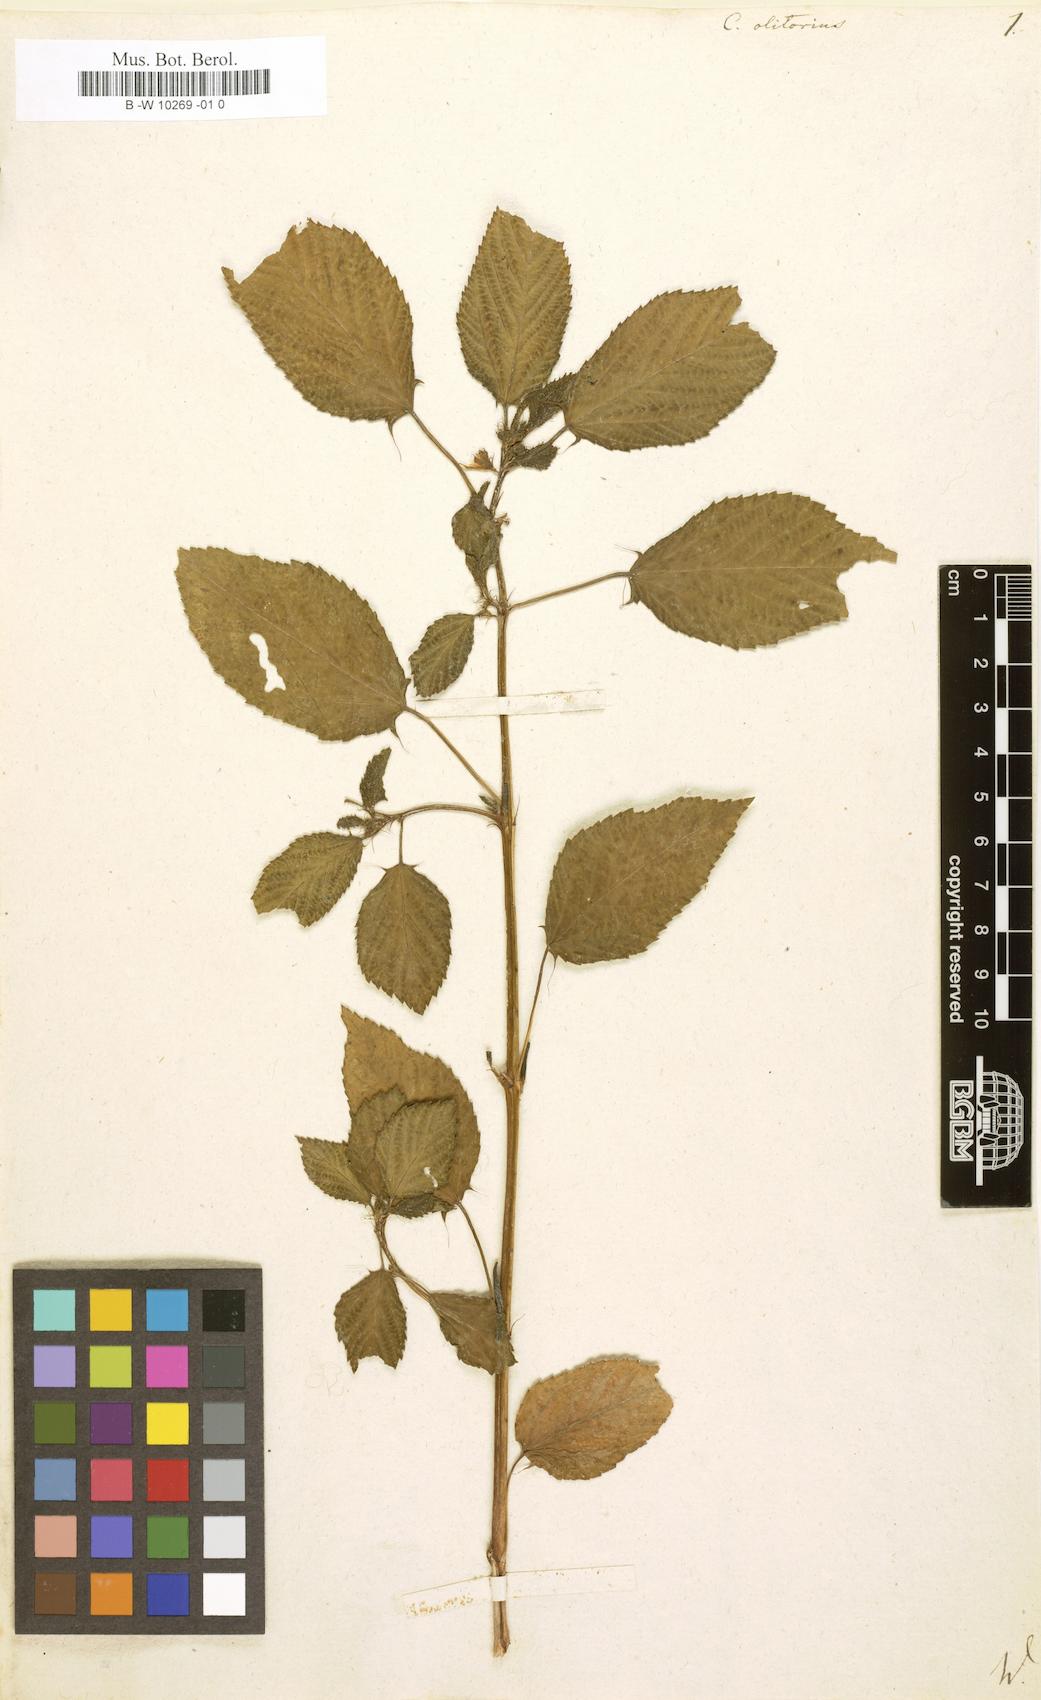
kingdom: Plantae
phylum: Tracheophyta
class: Magnoliopsida
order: Malvales
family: Malvaceae
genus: Corchorus
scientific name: Corchorus olitorius
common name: Tossa jute
